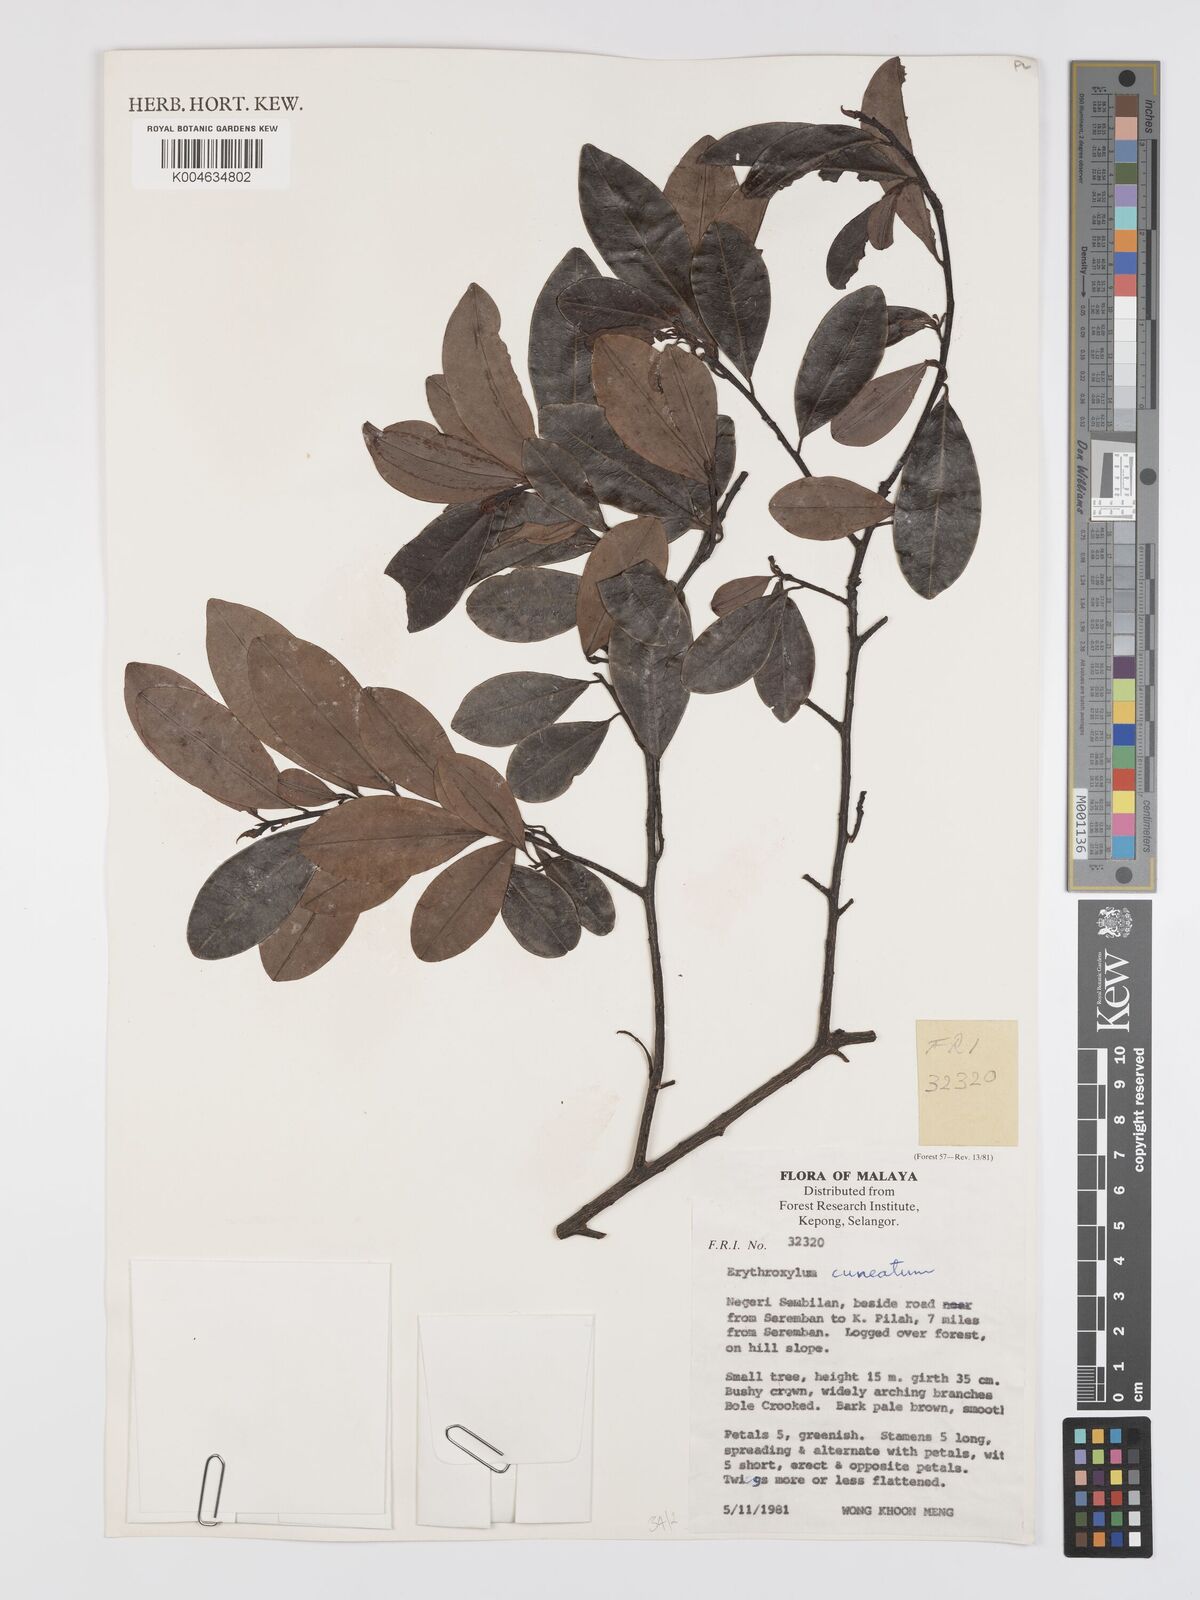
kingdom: Plantae
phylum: Tracheophyta
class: Magnoliopsida
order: Malpighiales
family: Erythroxylaceae
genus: Erythroxylum
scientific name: Erythroxylum cuneatum
